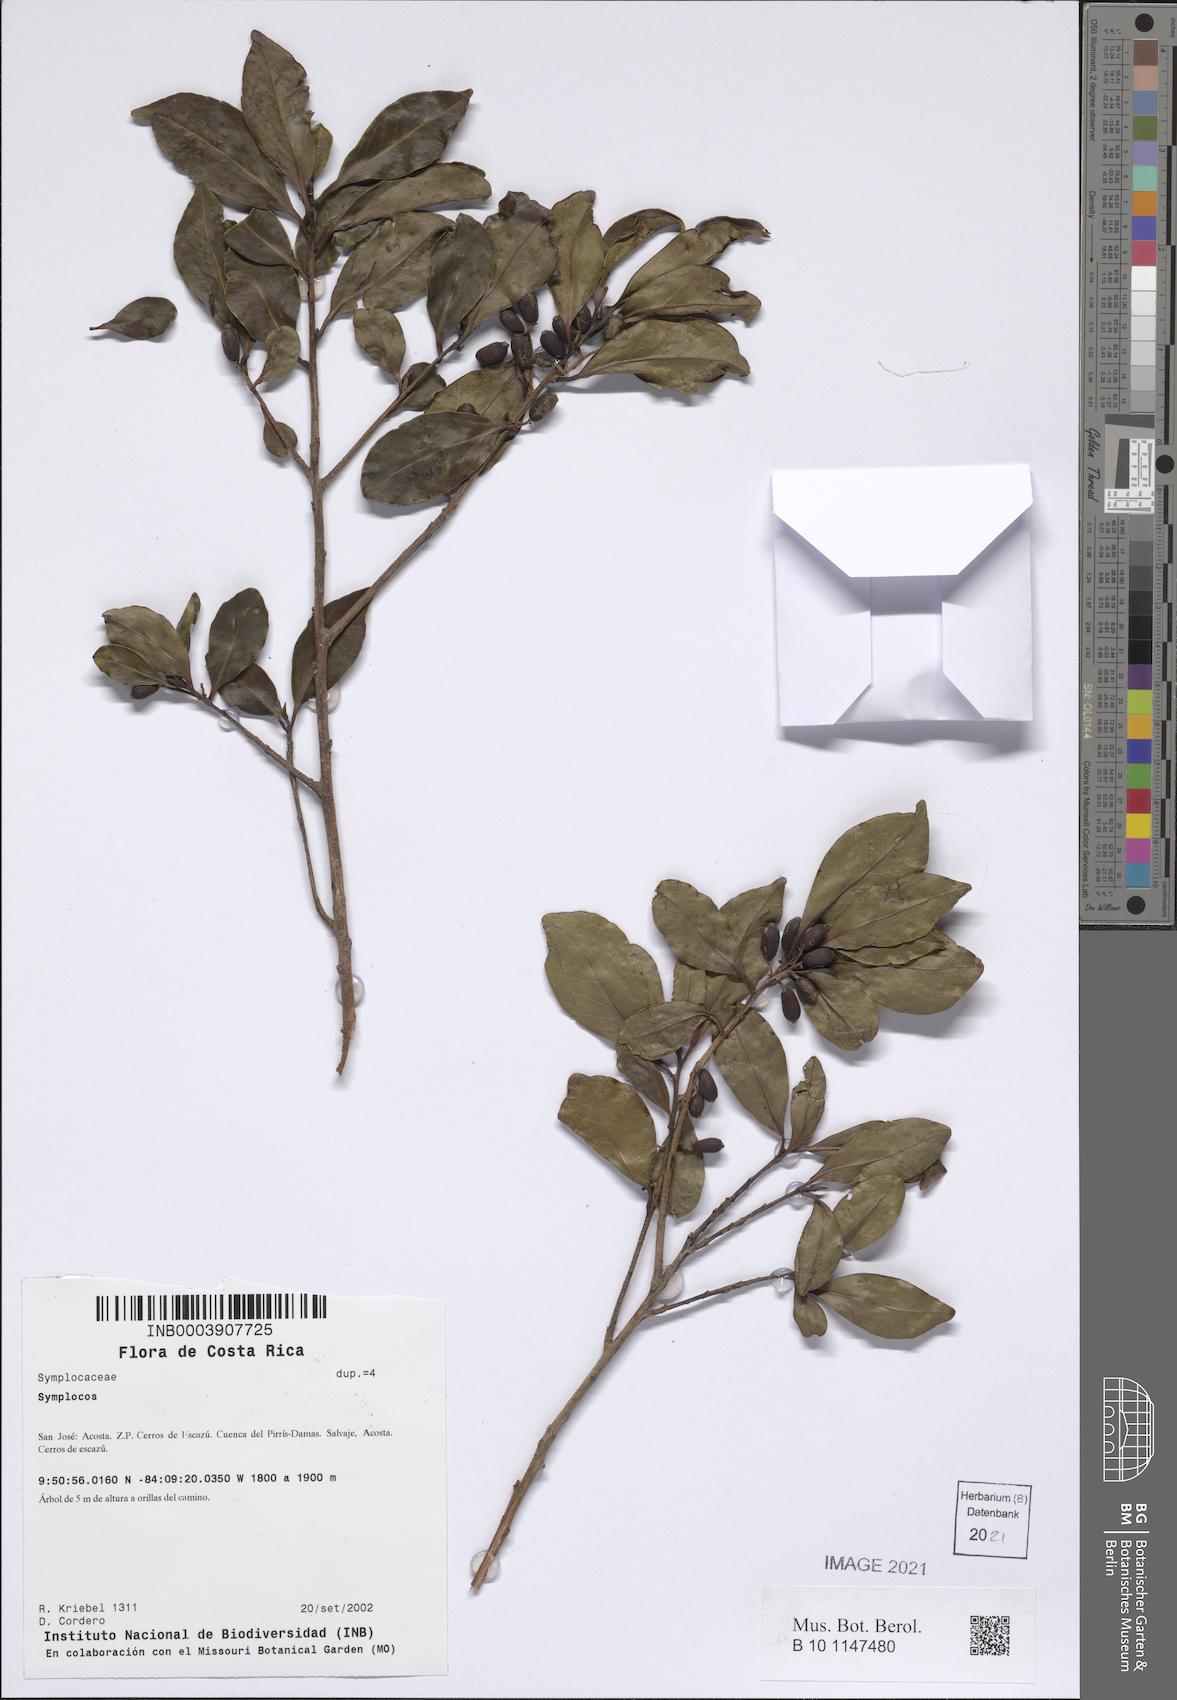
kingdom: Plantae
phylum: Tracheophyta
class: Magnoliopsida
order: Ericales
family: Symplocaceae
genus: Symplocos
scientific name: Symplocos
